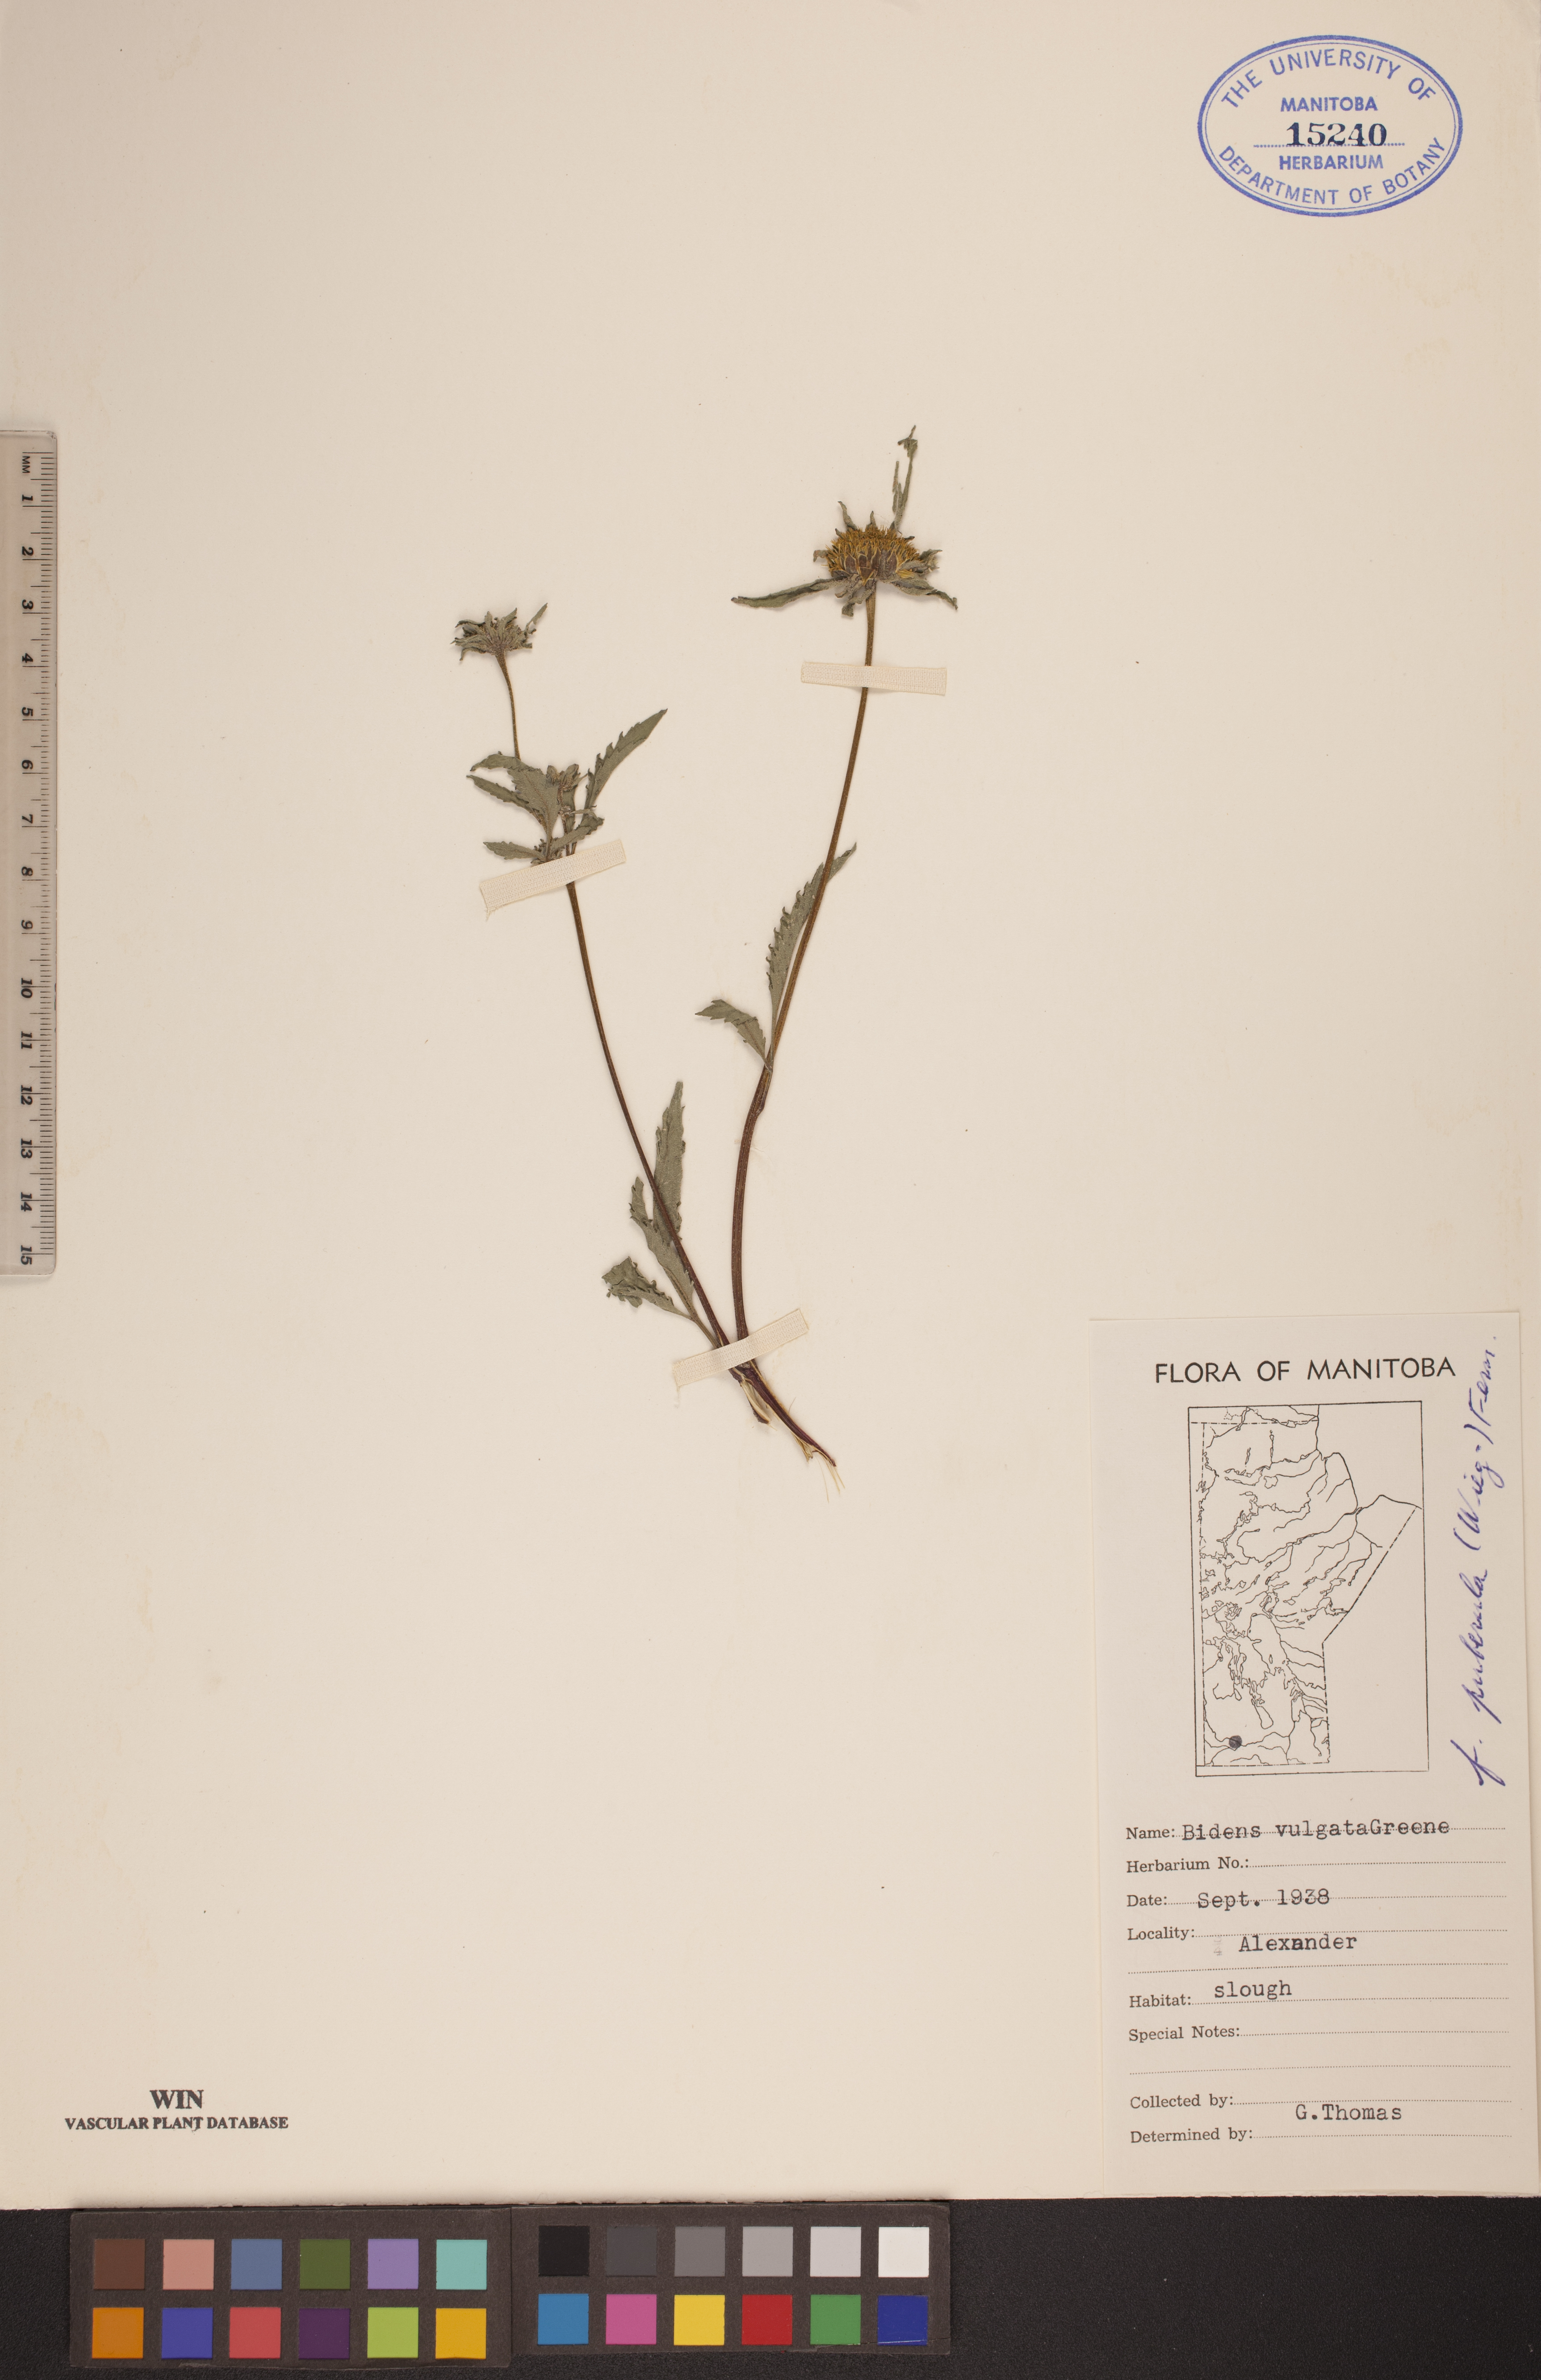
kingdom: Plantae
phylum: Tracheophyta
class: Magnoliopsida
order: Asterales
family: Asteraceae
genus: Bidens
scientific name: Bidens vulgata
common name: Tall beggarticks
